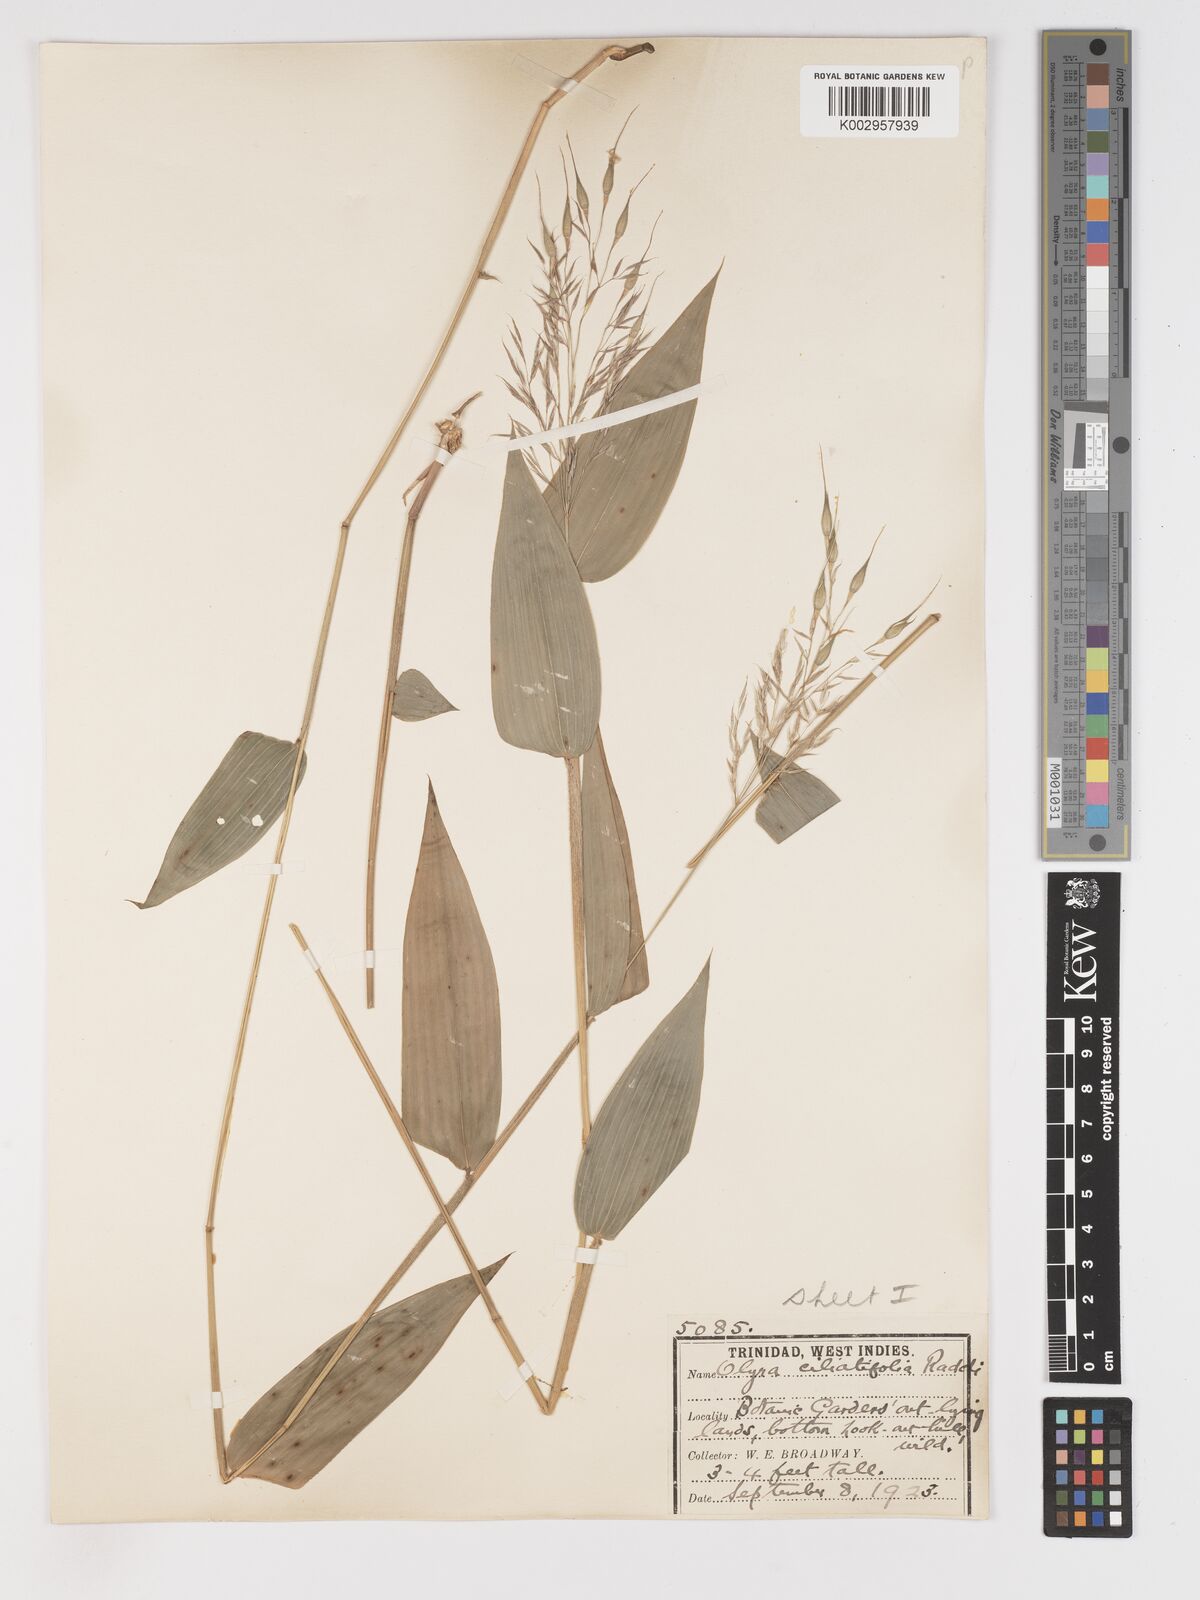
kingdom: Plantae
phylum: Tracheophyta
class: Liliopsida
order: Poales
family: Poaceae
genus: Olyra
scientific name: Olyra ciliatifolia
